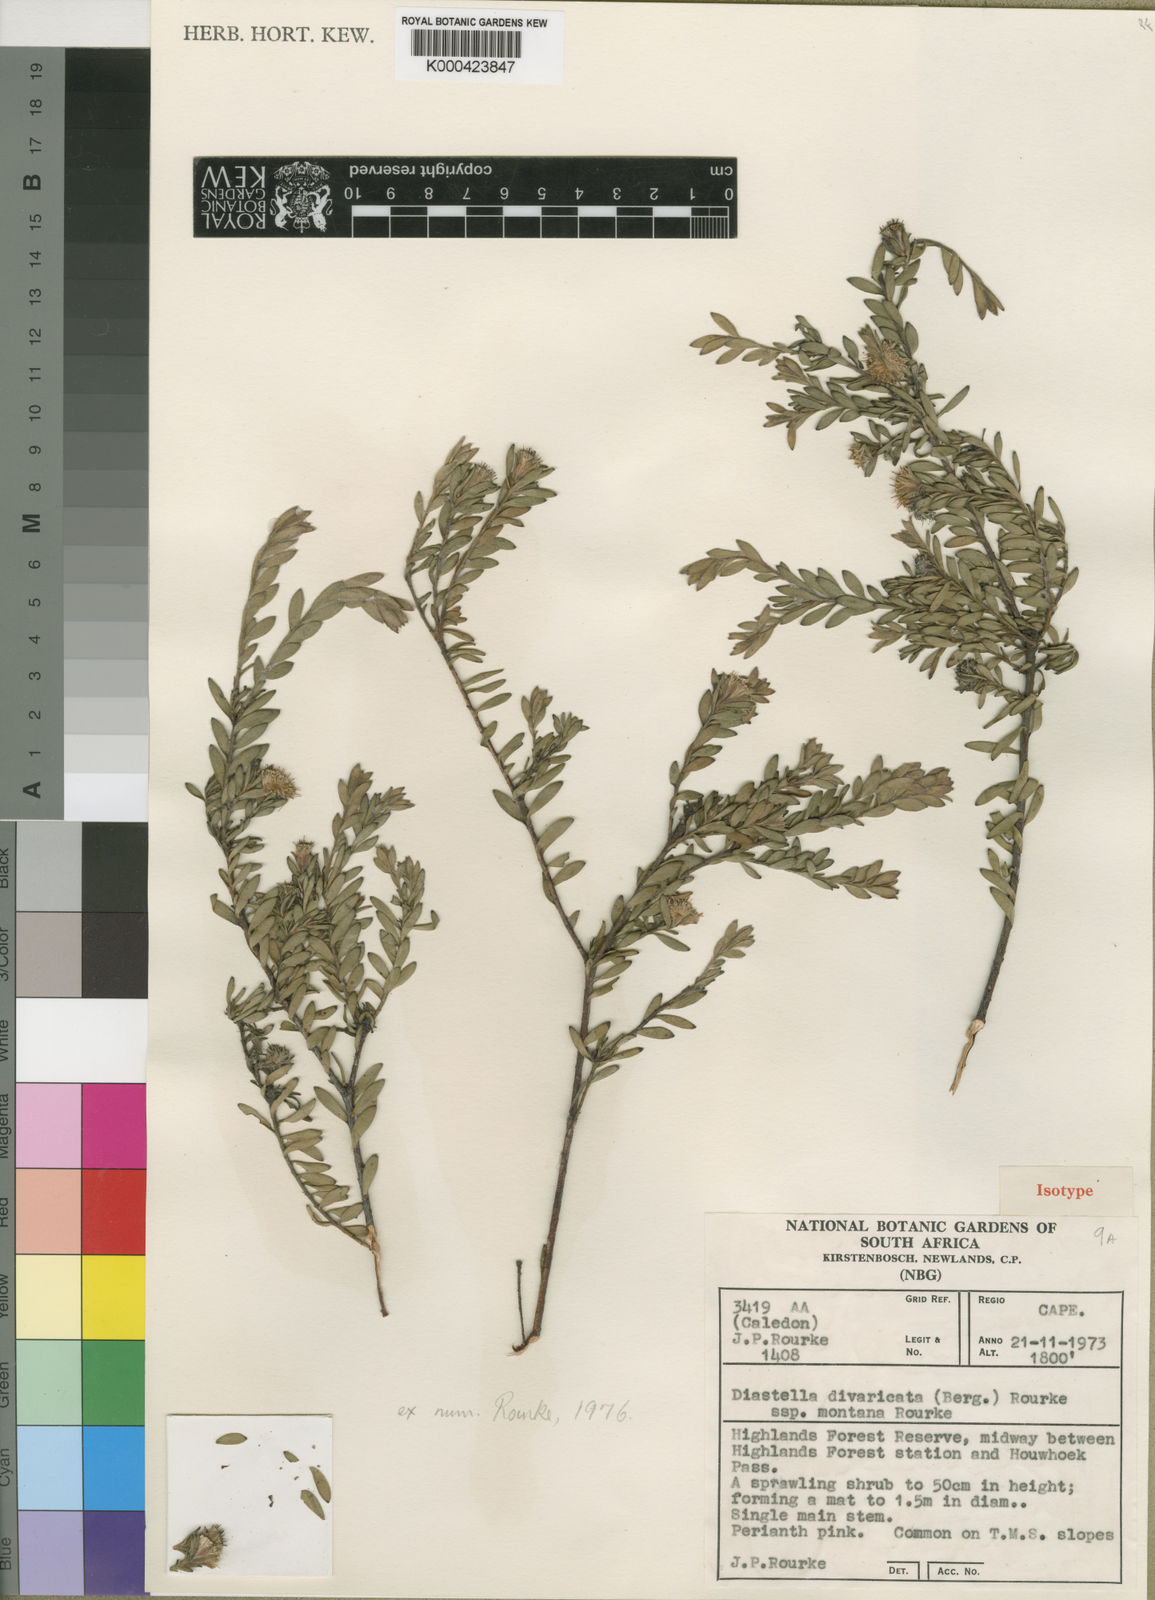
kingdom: Plantae
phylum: Tracheophyta
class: Magnoliopsida
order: Proteales
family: Proteaceae
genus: Diastella
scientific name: Diastella divaricata
